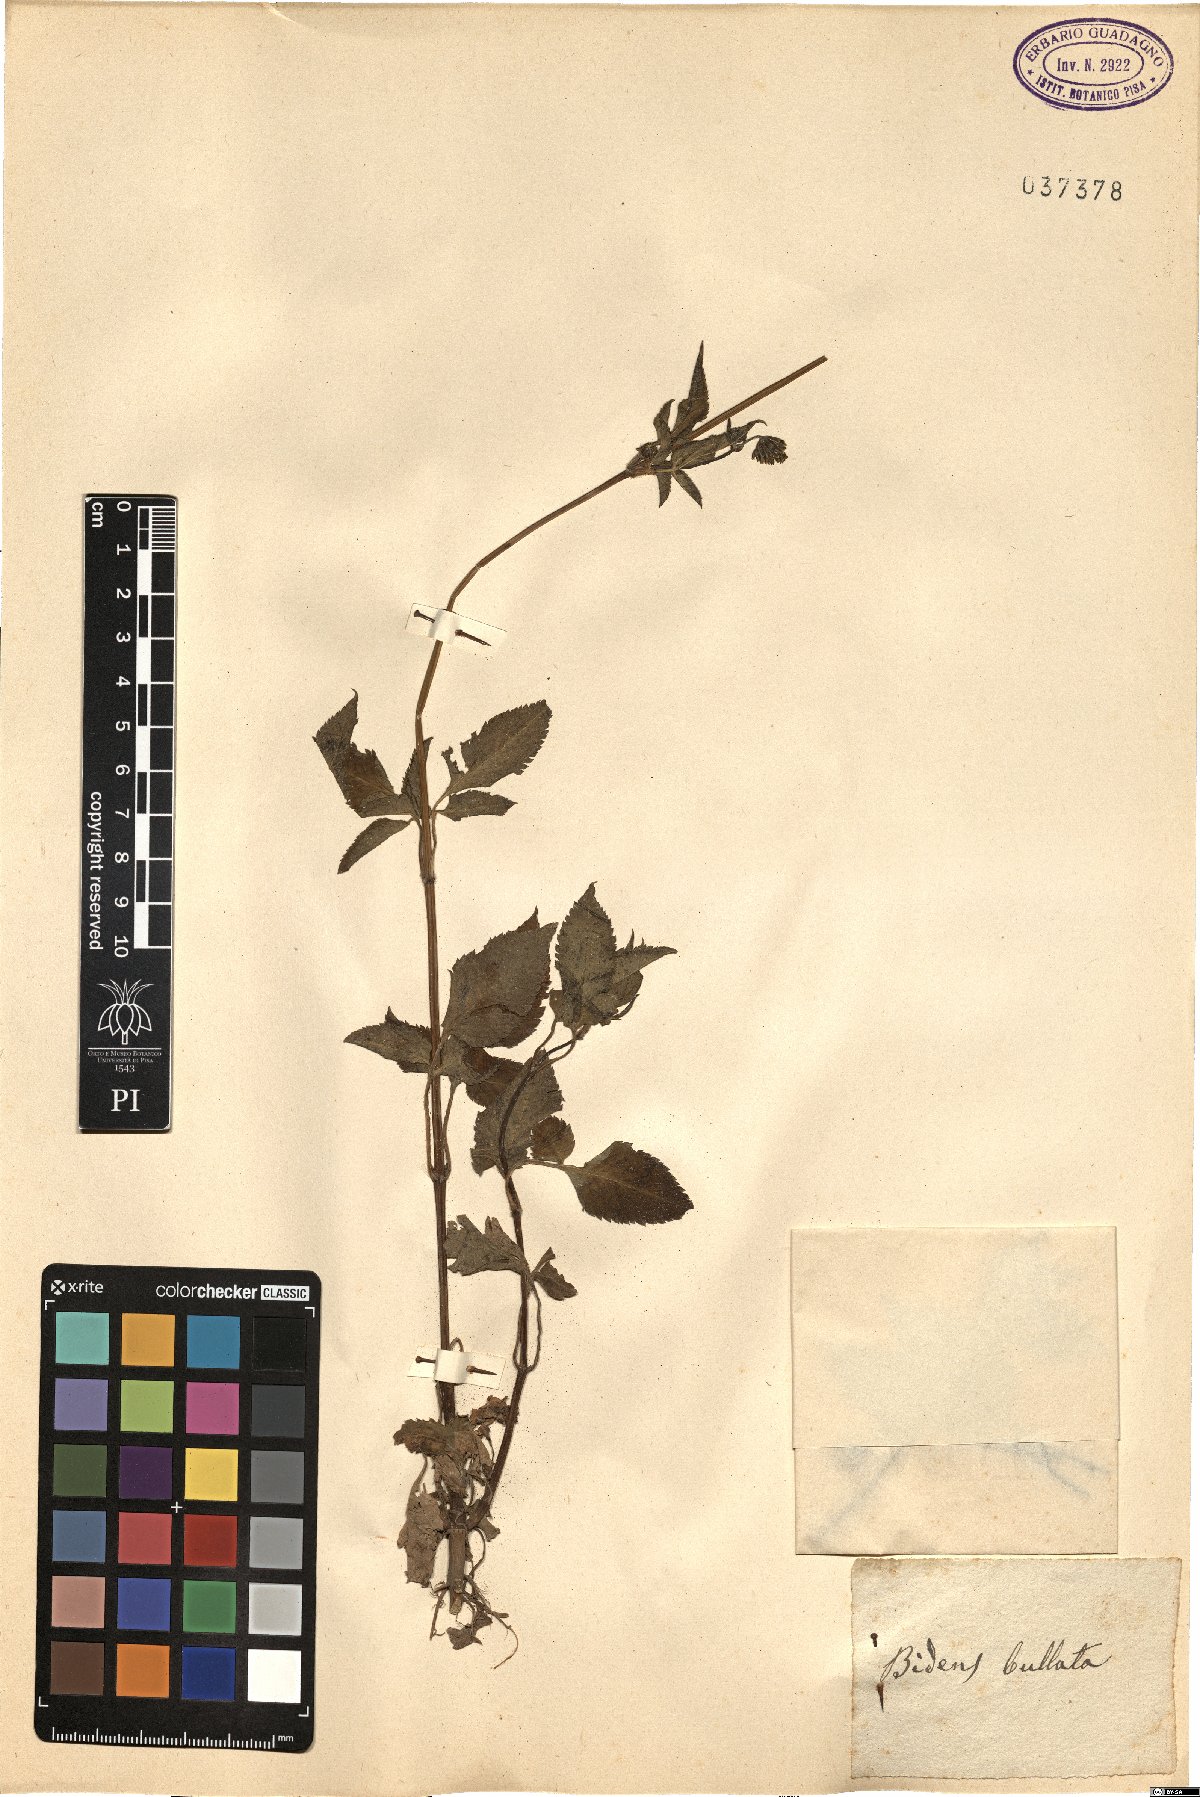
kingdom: Plantae
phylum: Tracheophyta
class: Magnoliopsida
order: Asterales
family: Asteraceae
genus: Bidens
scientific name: Bidens tripartita
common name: Trifid bur-marigold
